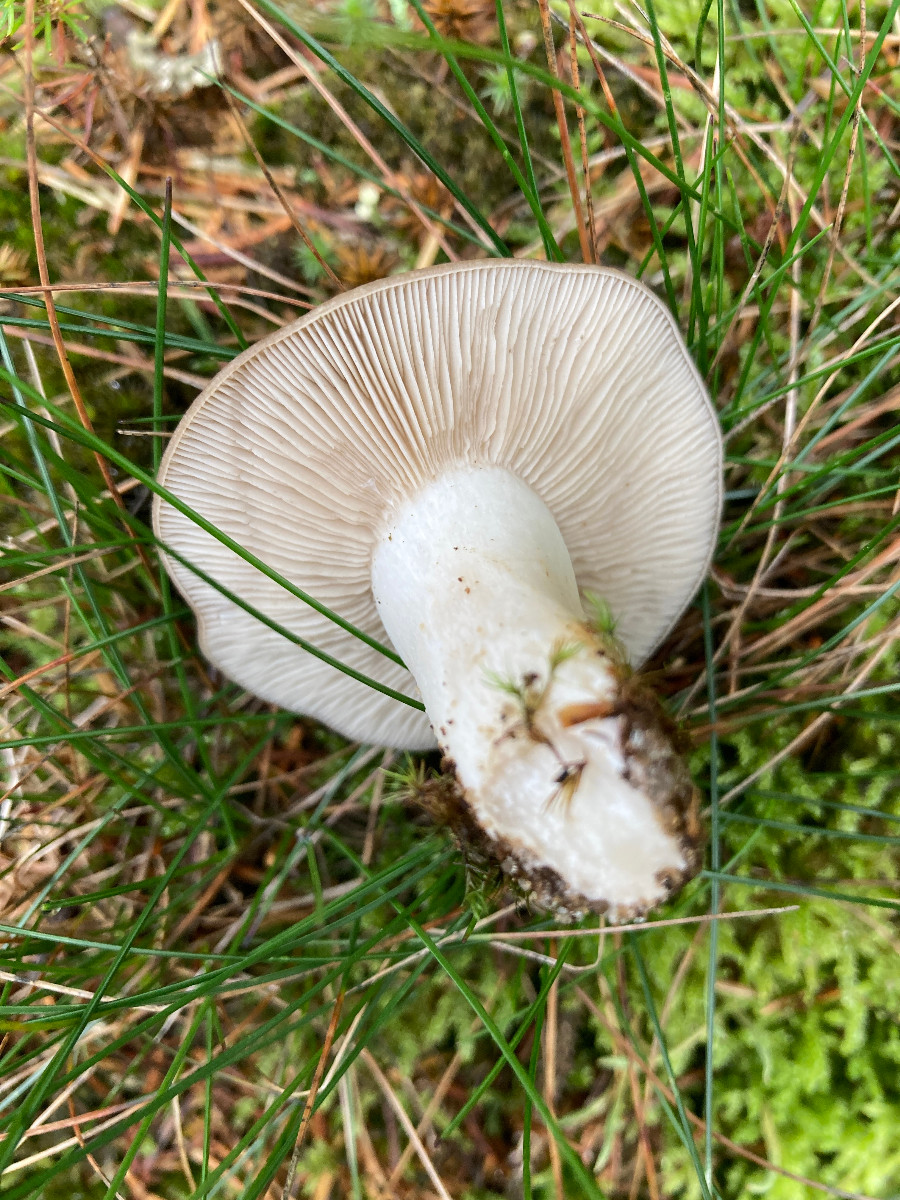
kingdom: Fungi
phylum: Basidiomycota
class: Agaricomycetes
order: Agaricales
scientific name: Agaricales
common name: champignonordenen
